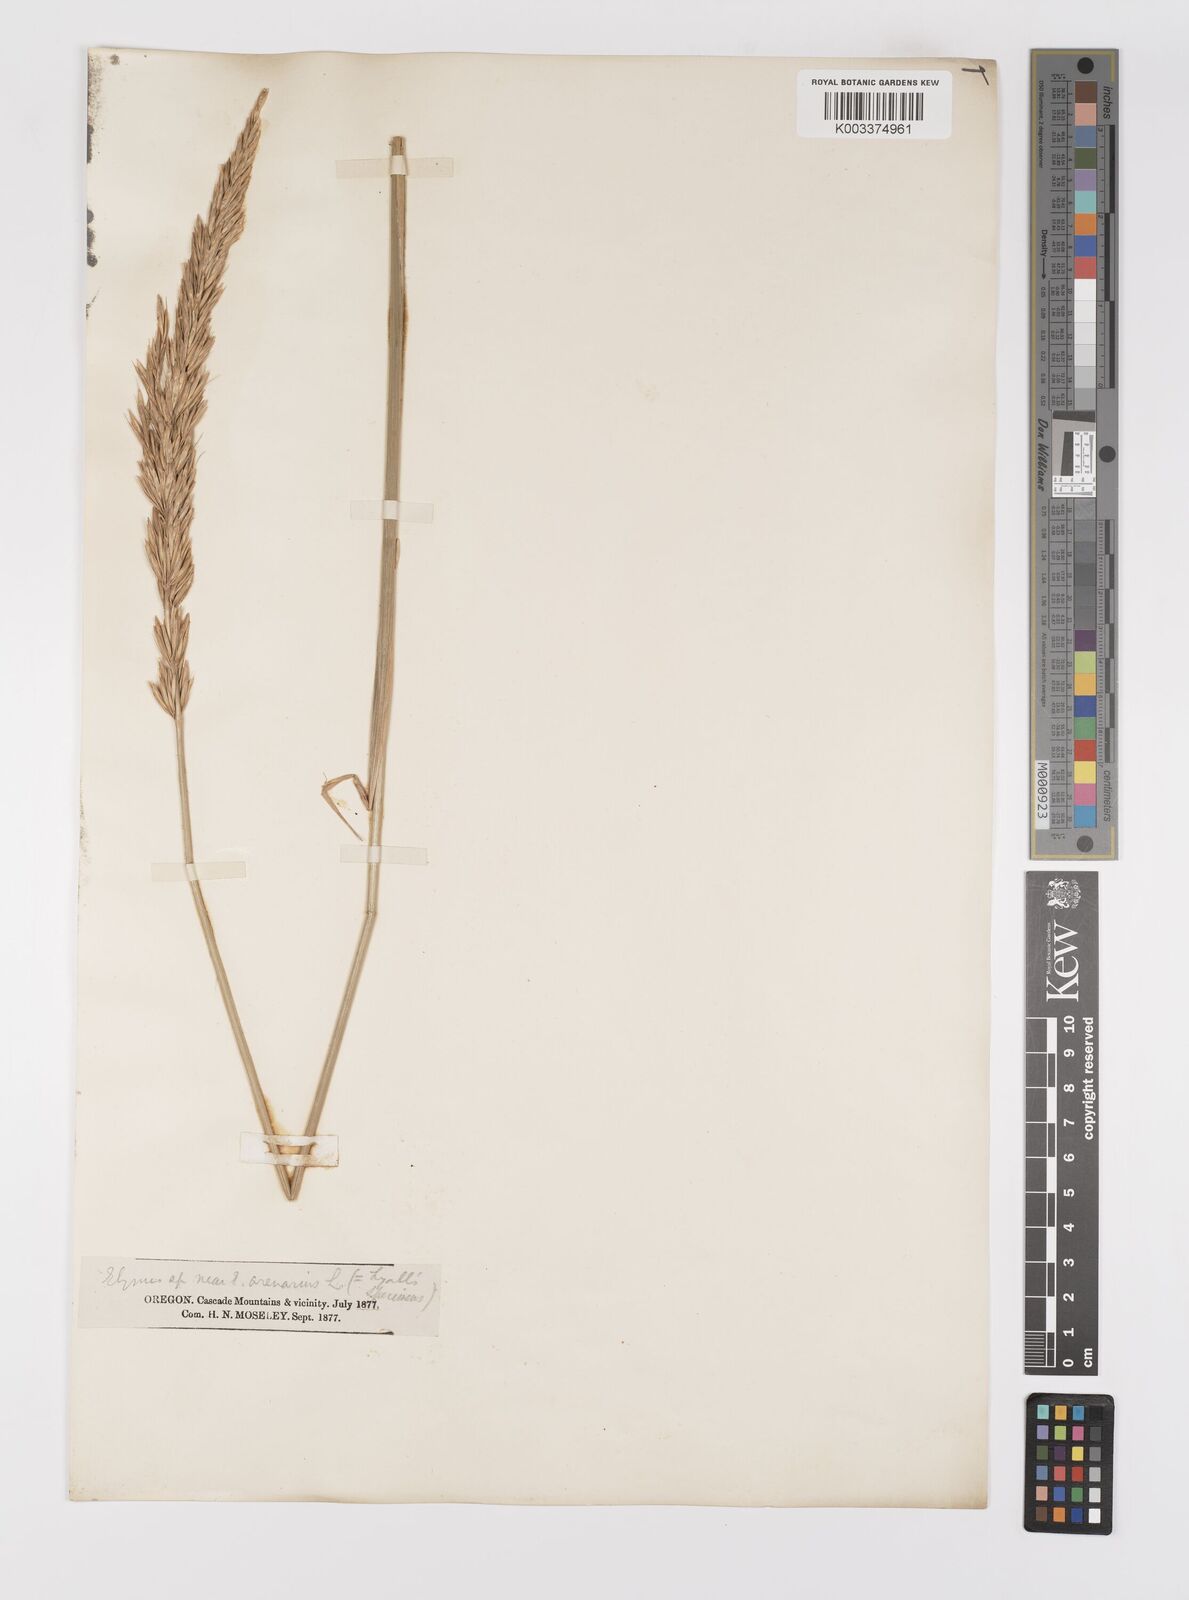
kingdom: Plantae
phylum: Tracheophyta
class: Liliopsida
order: Poales
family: Poaceae
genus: Elymus
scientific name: Elymus lanceolatus
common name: Thick-spike wheatgrass
